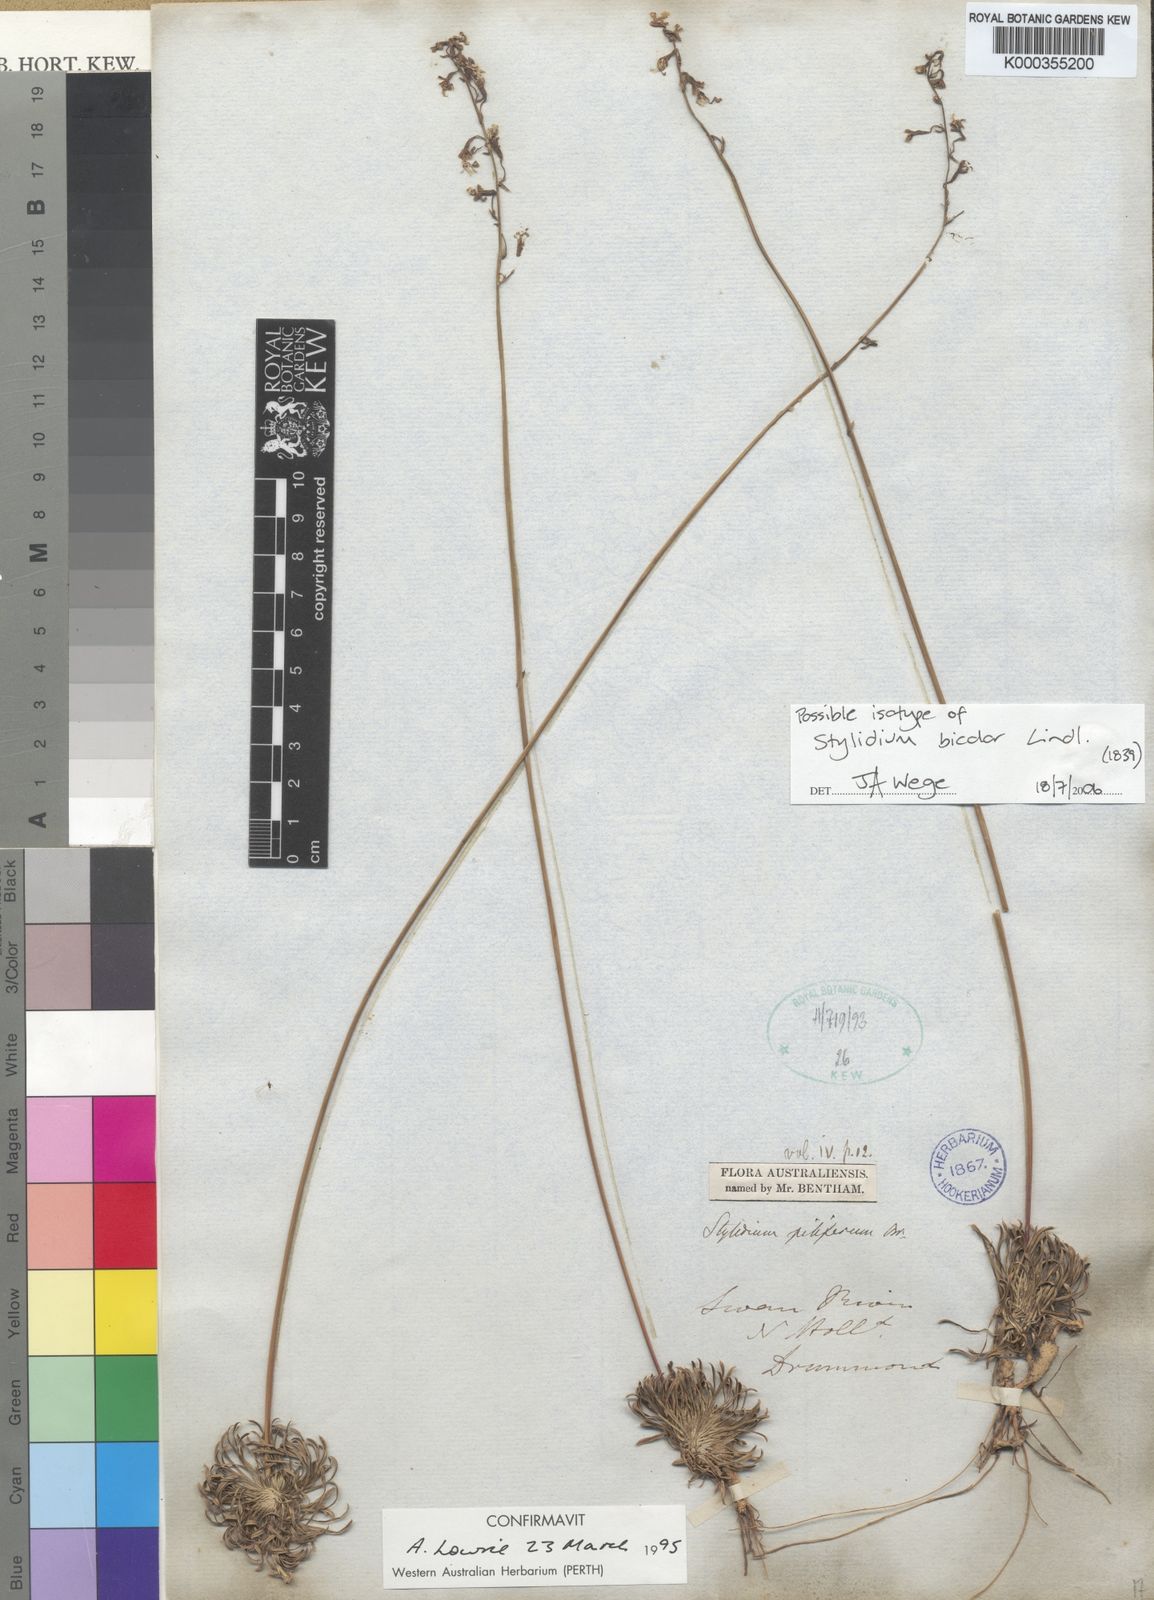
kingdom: Plantae
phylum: Tracheophyta
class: Magnoliopsida
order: Asterales
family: Stylidiaceae
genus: Stylidium
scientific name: Stylidium bicolor
